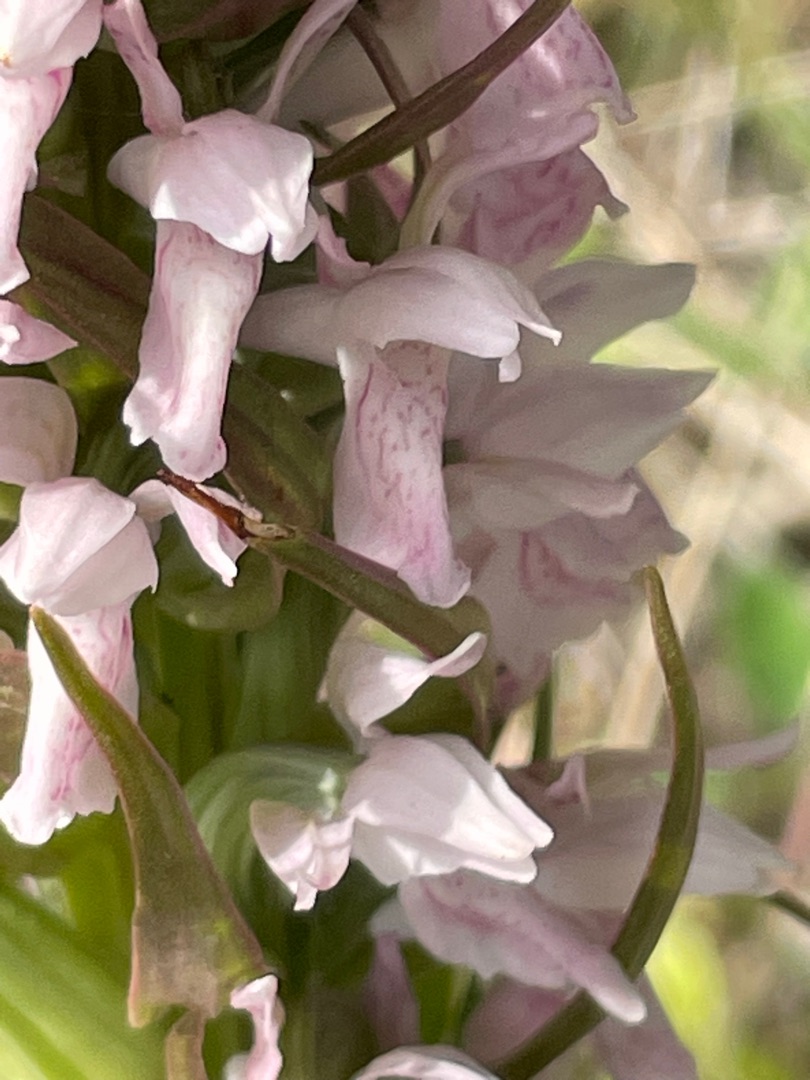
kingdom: Plantae
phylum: Tracheophyta
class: Liliopsida
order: Asparagales
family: Orchidaceae
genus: Dactylorhiza
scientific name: Dactylorhiza incarnata
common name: Kødfarvet gøgeurt
